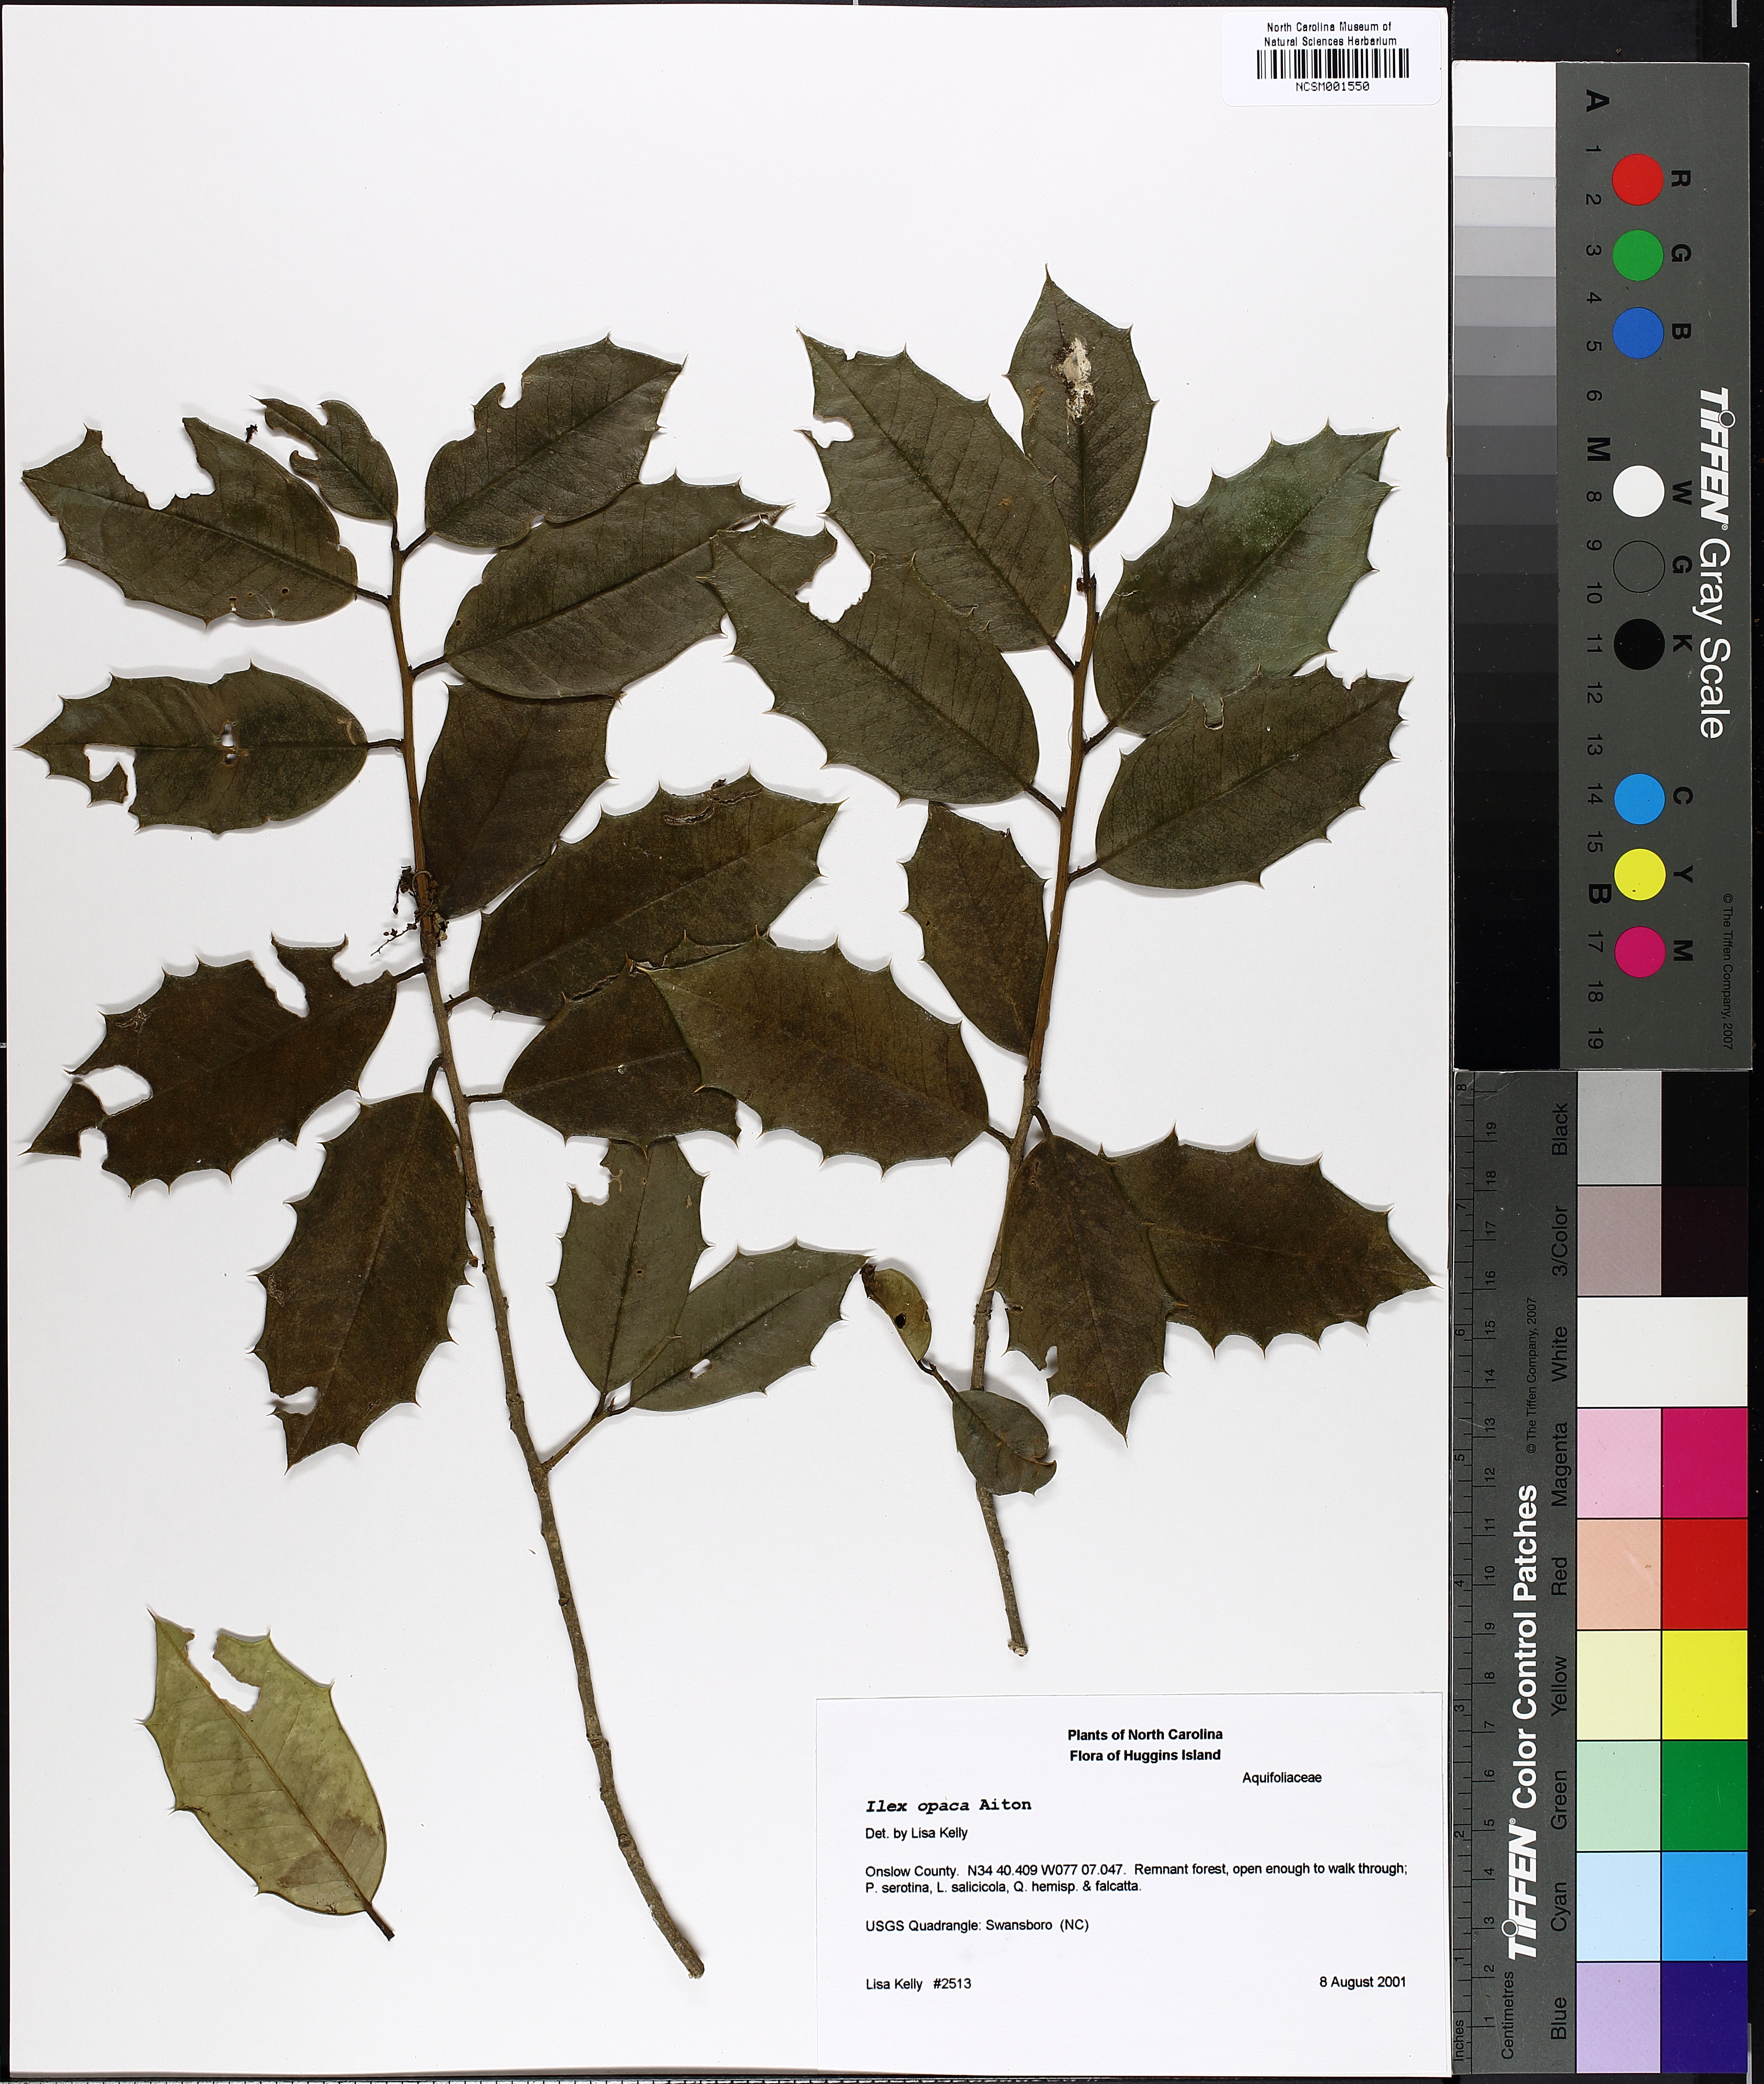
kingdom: Plantae
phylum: Tracheophyta
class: Magnoliopsida
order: Aquifoliales
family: Aquifoliaceae
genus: Ilex
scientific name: Ilex opaca
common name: American holly
